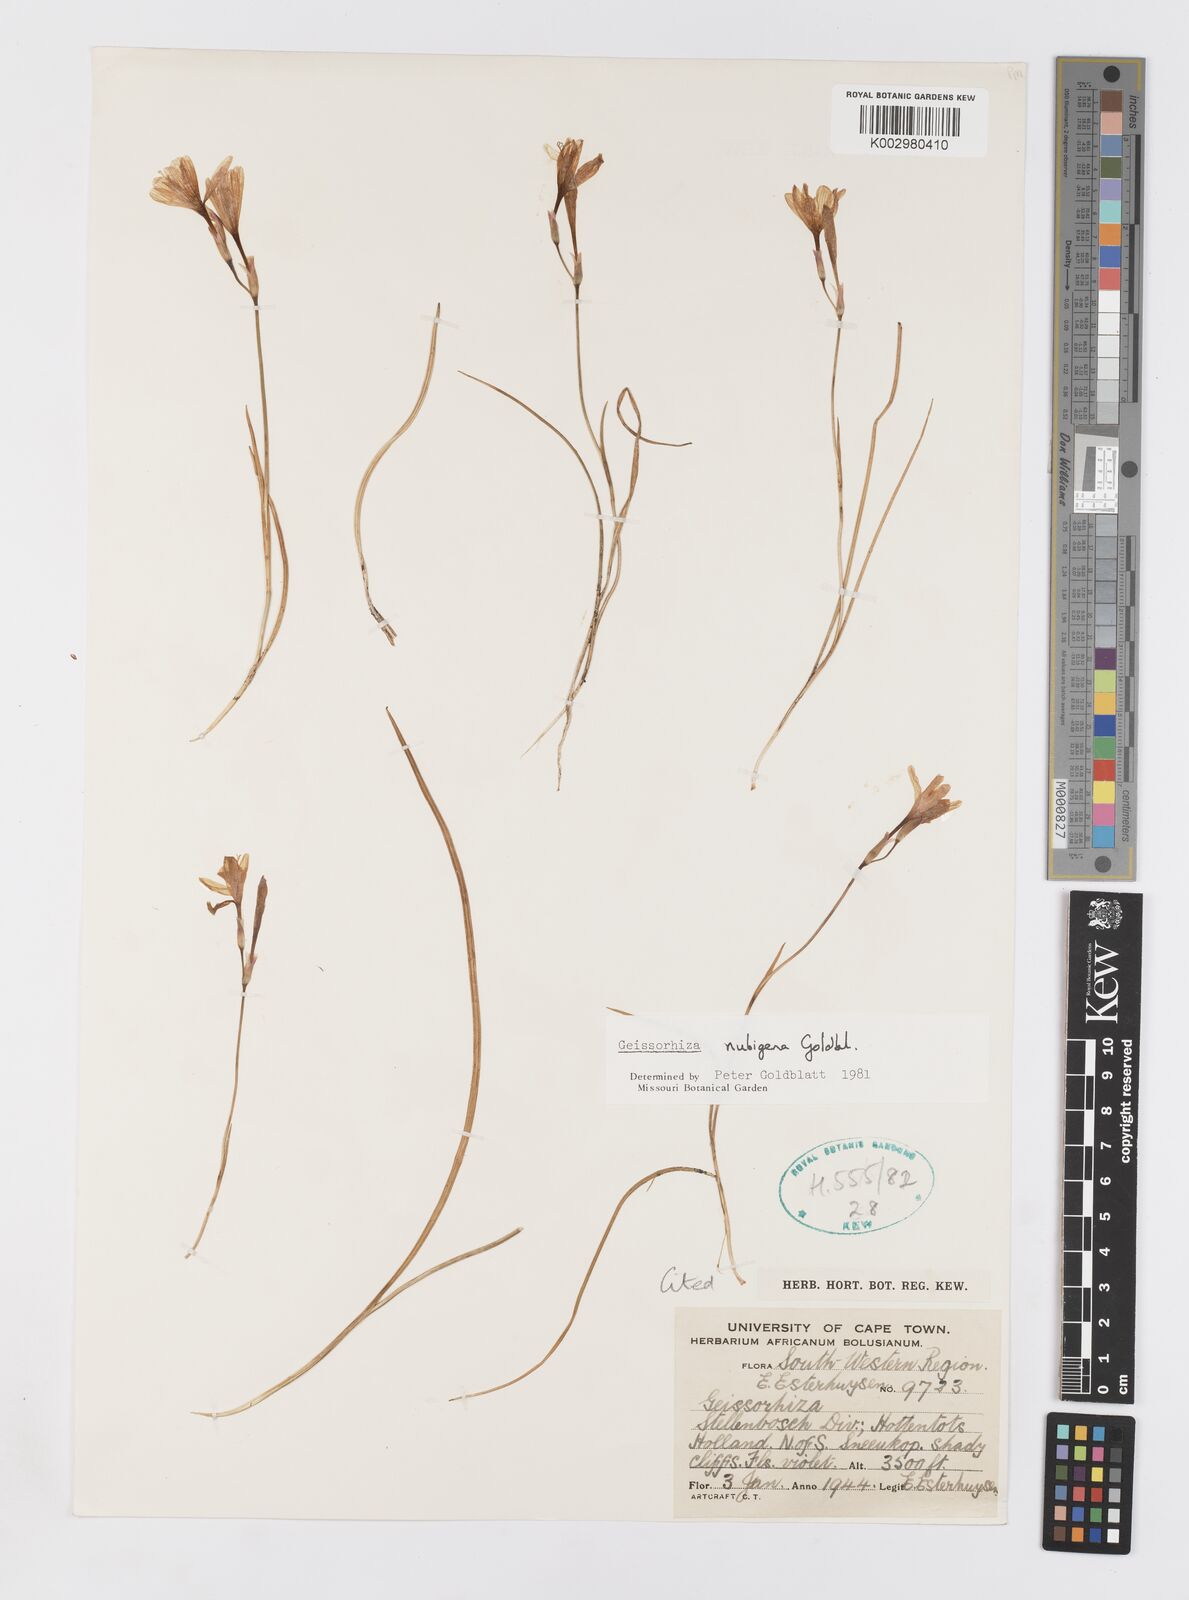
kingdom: Plantae
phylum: Tracheophyta
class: Liliopsida
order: Asparagales
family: Iridaceae
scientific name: Iridaceae
